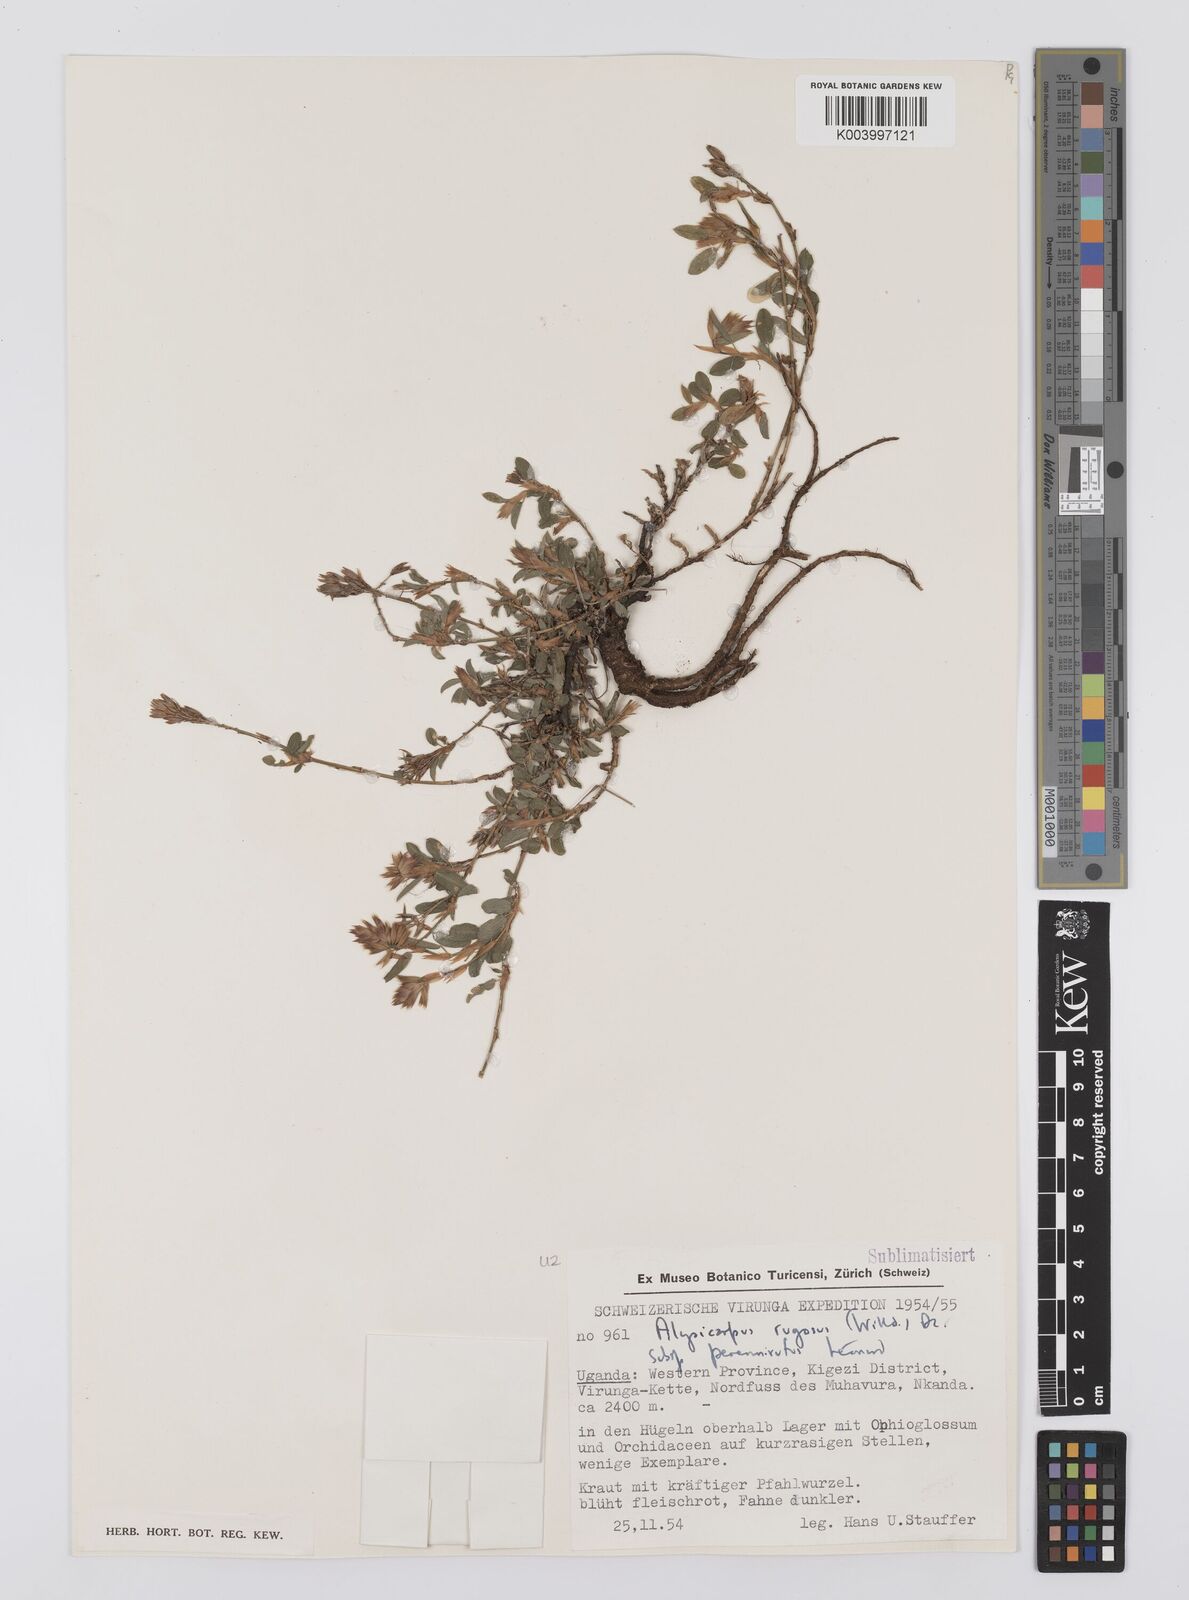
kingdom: Plantae
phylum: Tracheophyta
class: Magnoliopsida
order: Fabales
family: Fabaceae
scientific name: Fabaceae
